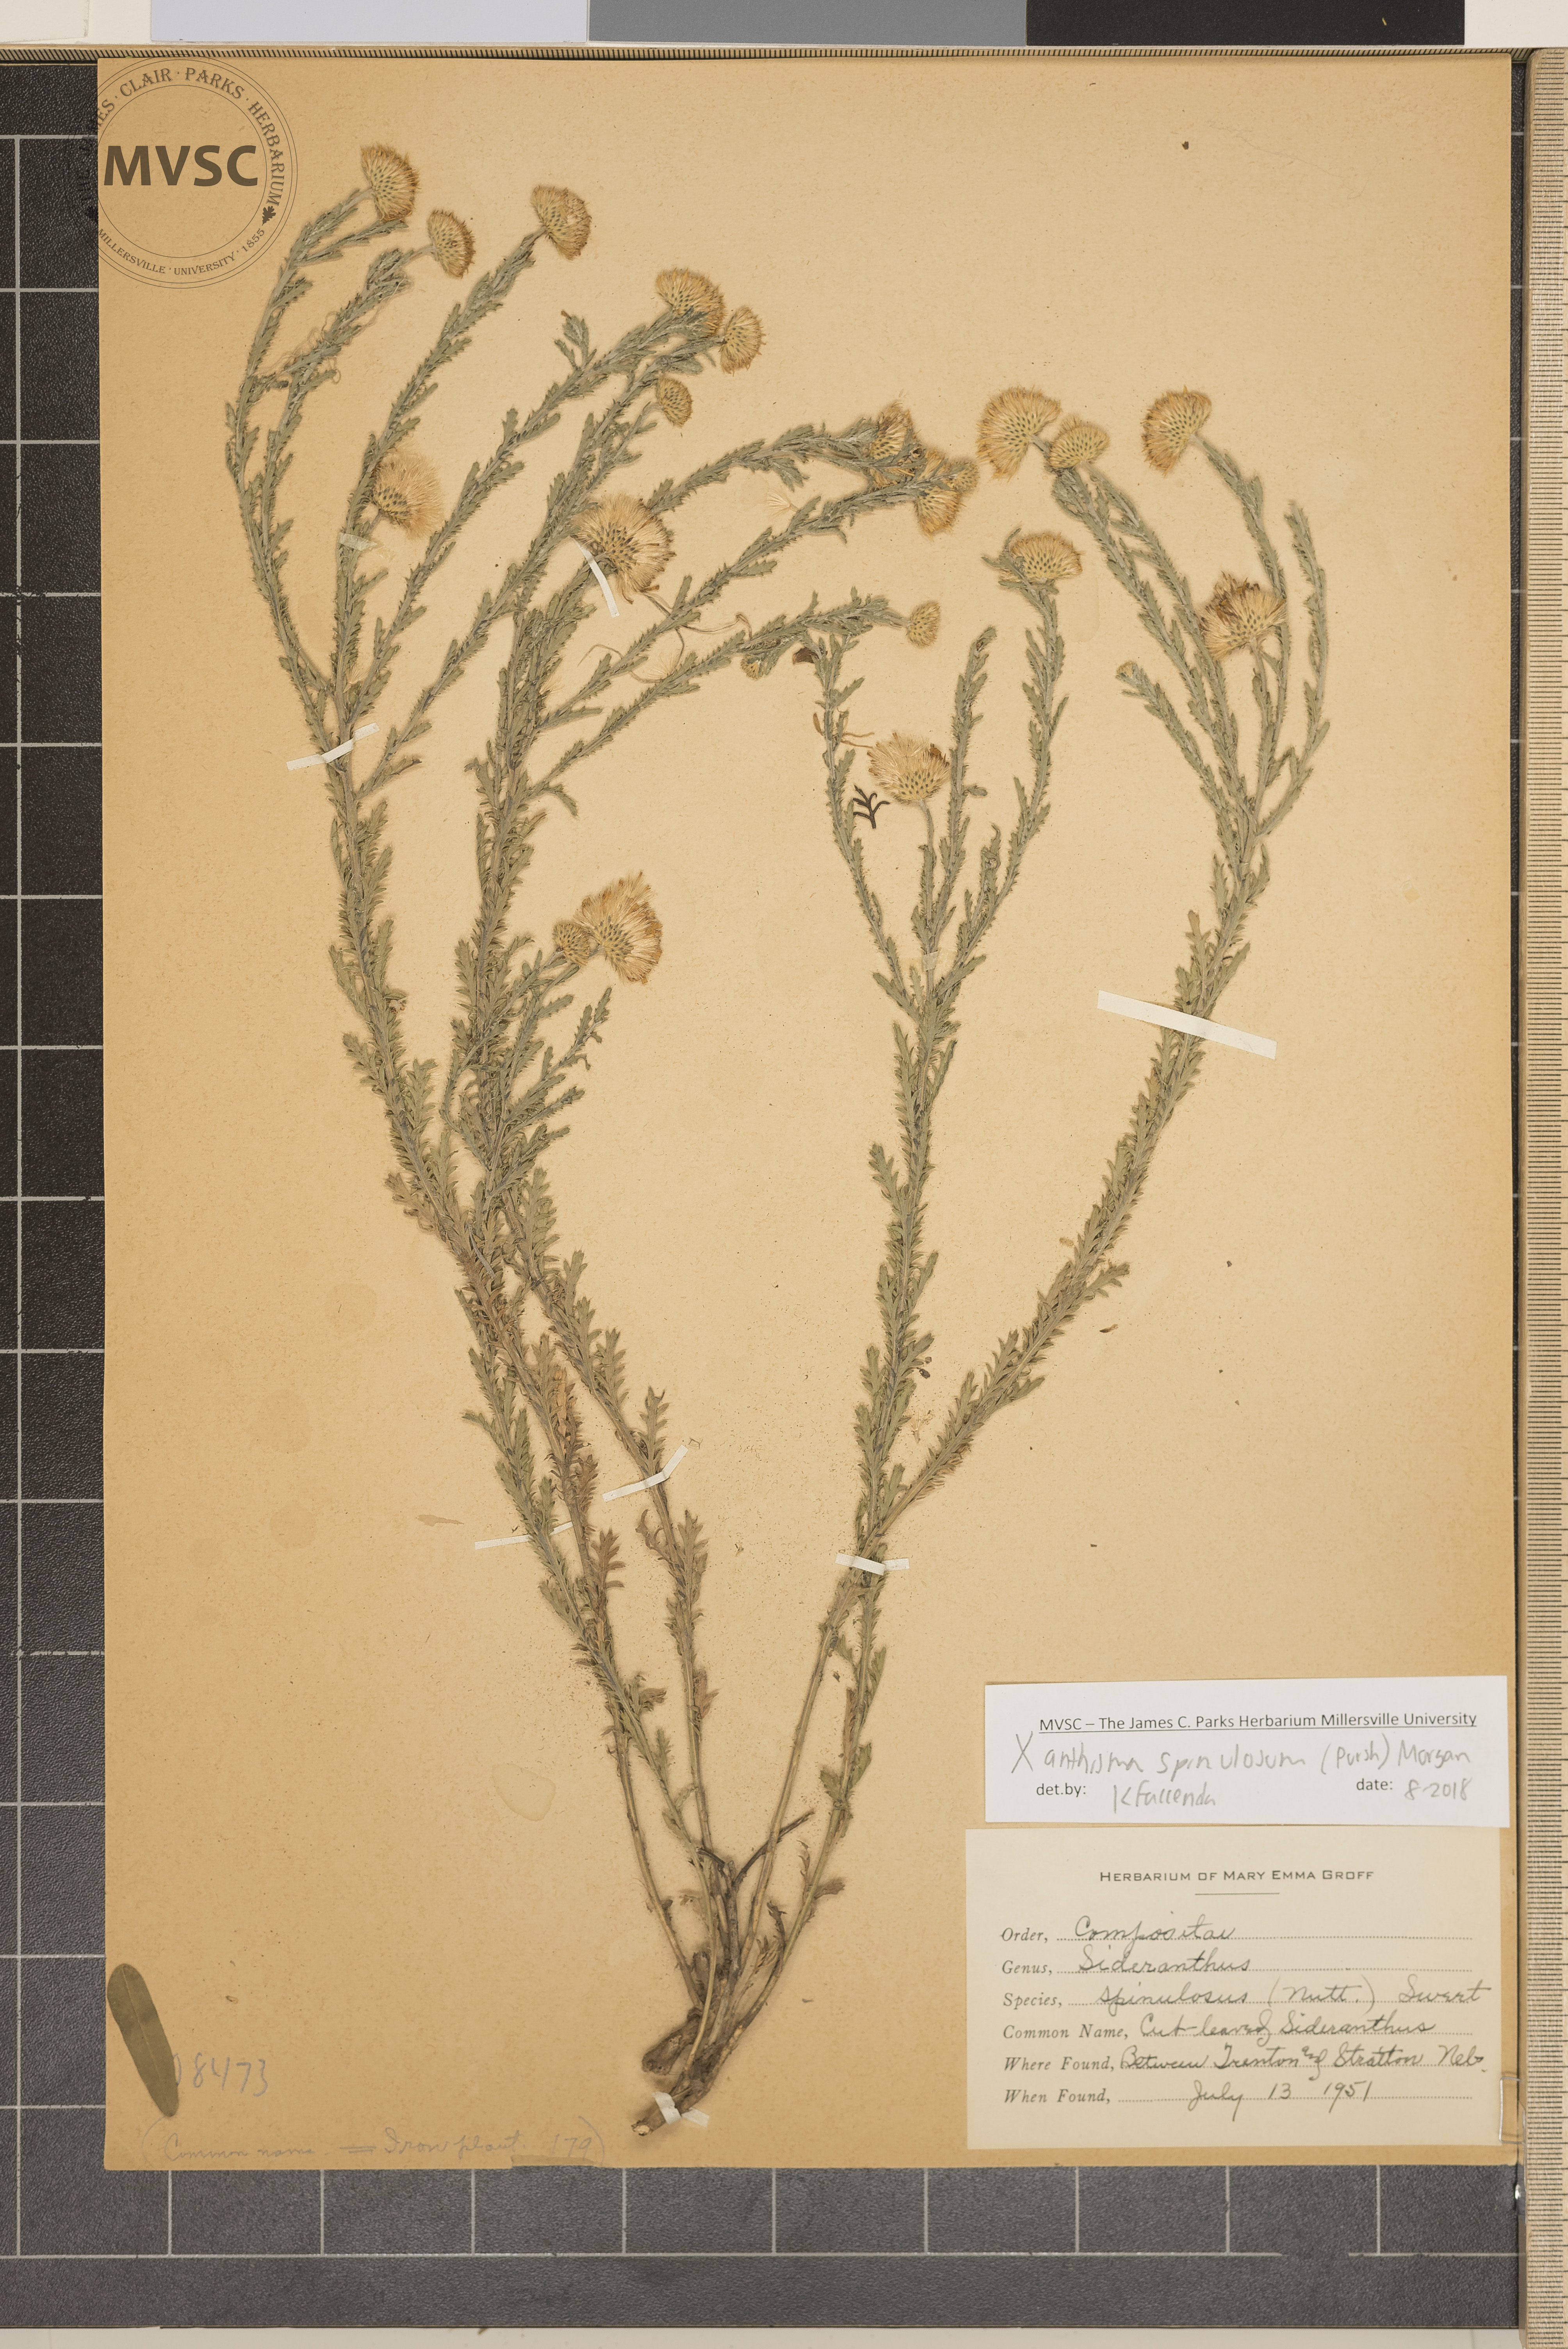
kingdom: Plantae
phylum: Tracheophyta
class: Magnoliopsida
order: Asterales
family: Asteraceae
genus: Xanthisma
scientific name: Xanthisma spinulosum
